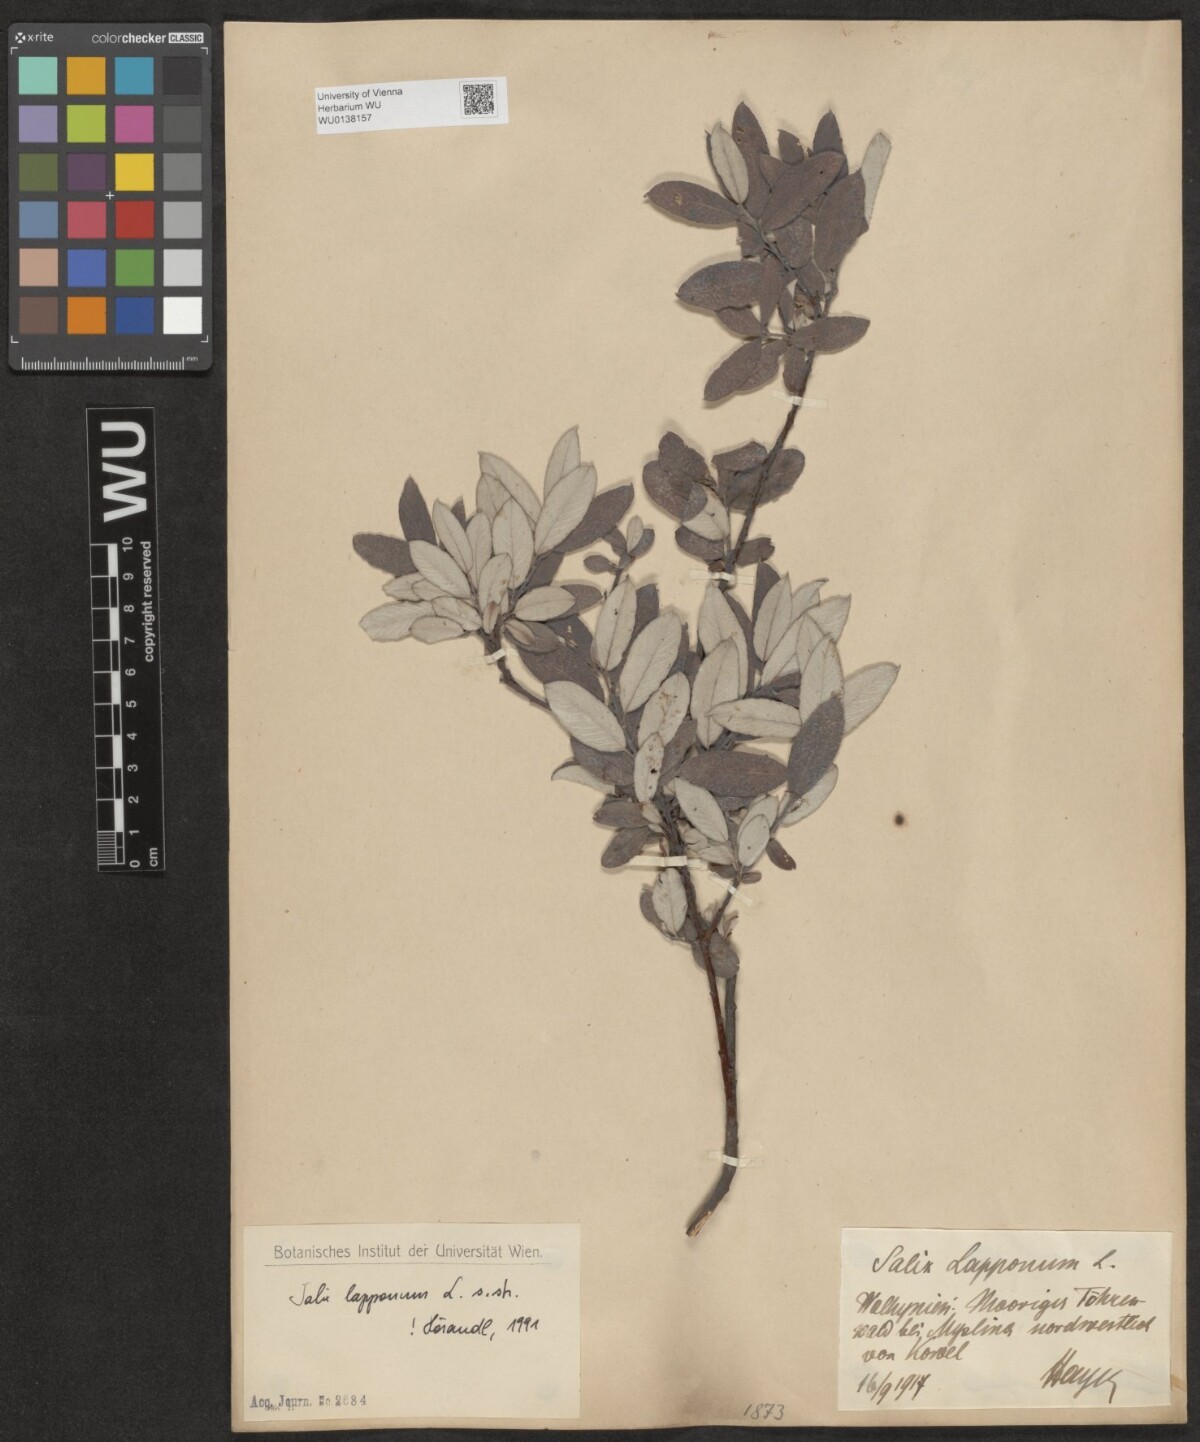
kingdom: Plantae
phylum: Tracheophyta
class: Magnoliopsida
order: Malpighiales
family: Salicaceae
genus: Salix
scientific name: Salix lapponum
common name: Downy willow
